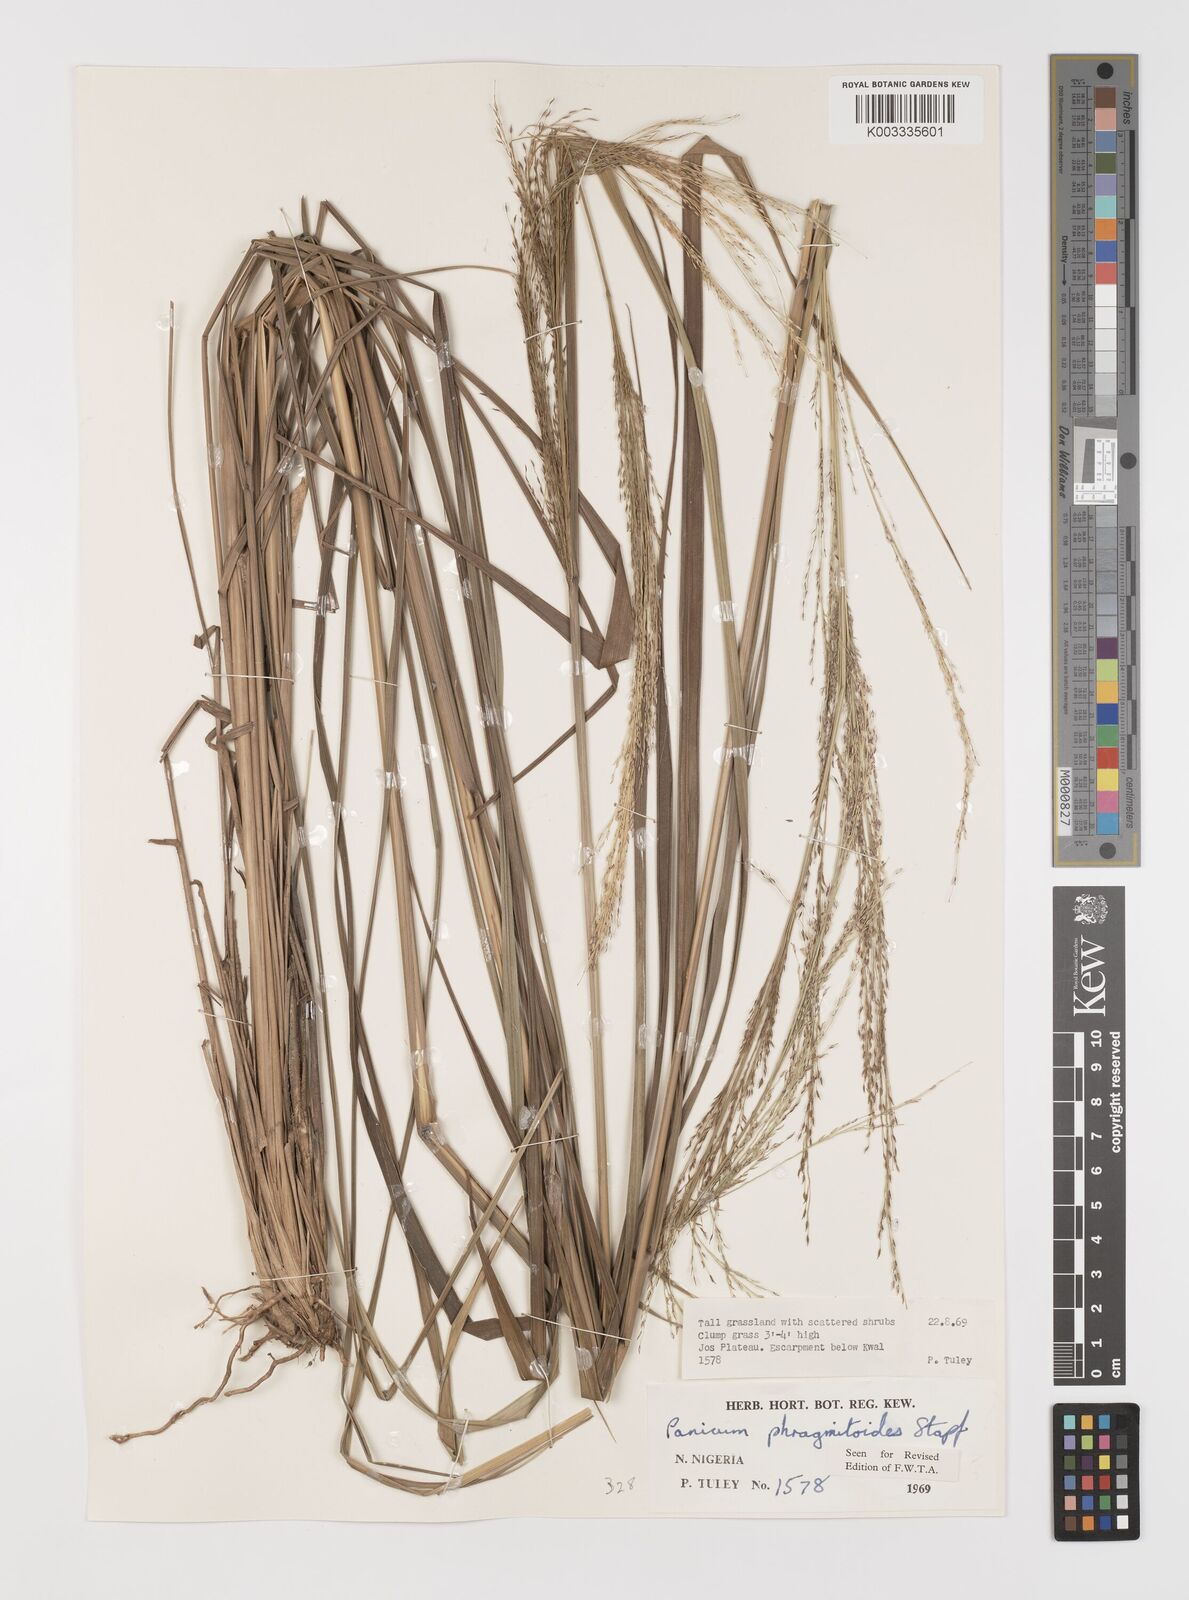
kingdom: Plantae
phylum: Tracheophyta
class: Liliopsida
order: Poales
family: Poaceae
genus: Panicum
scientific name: Panicum phragmitoides
